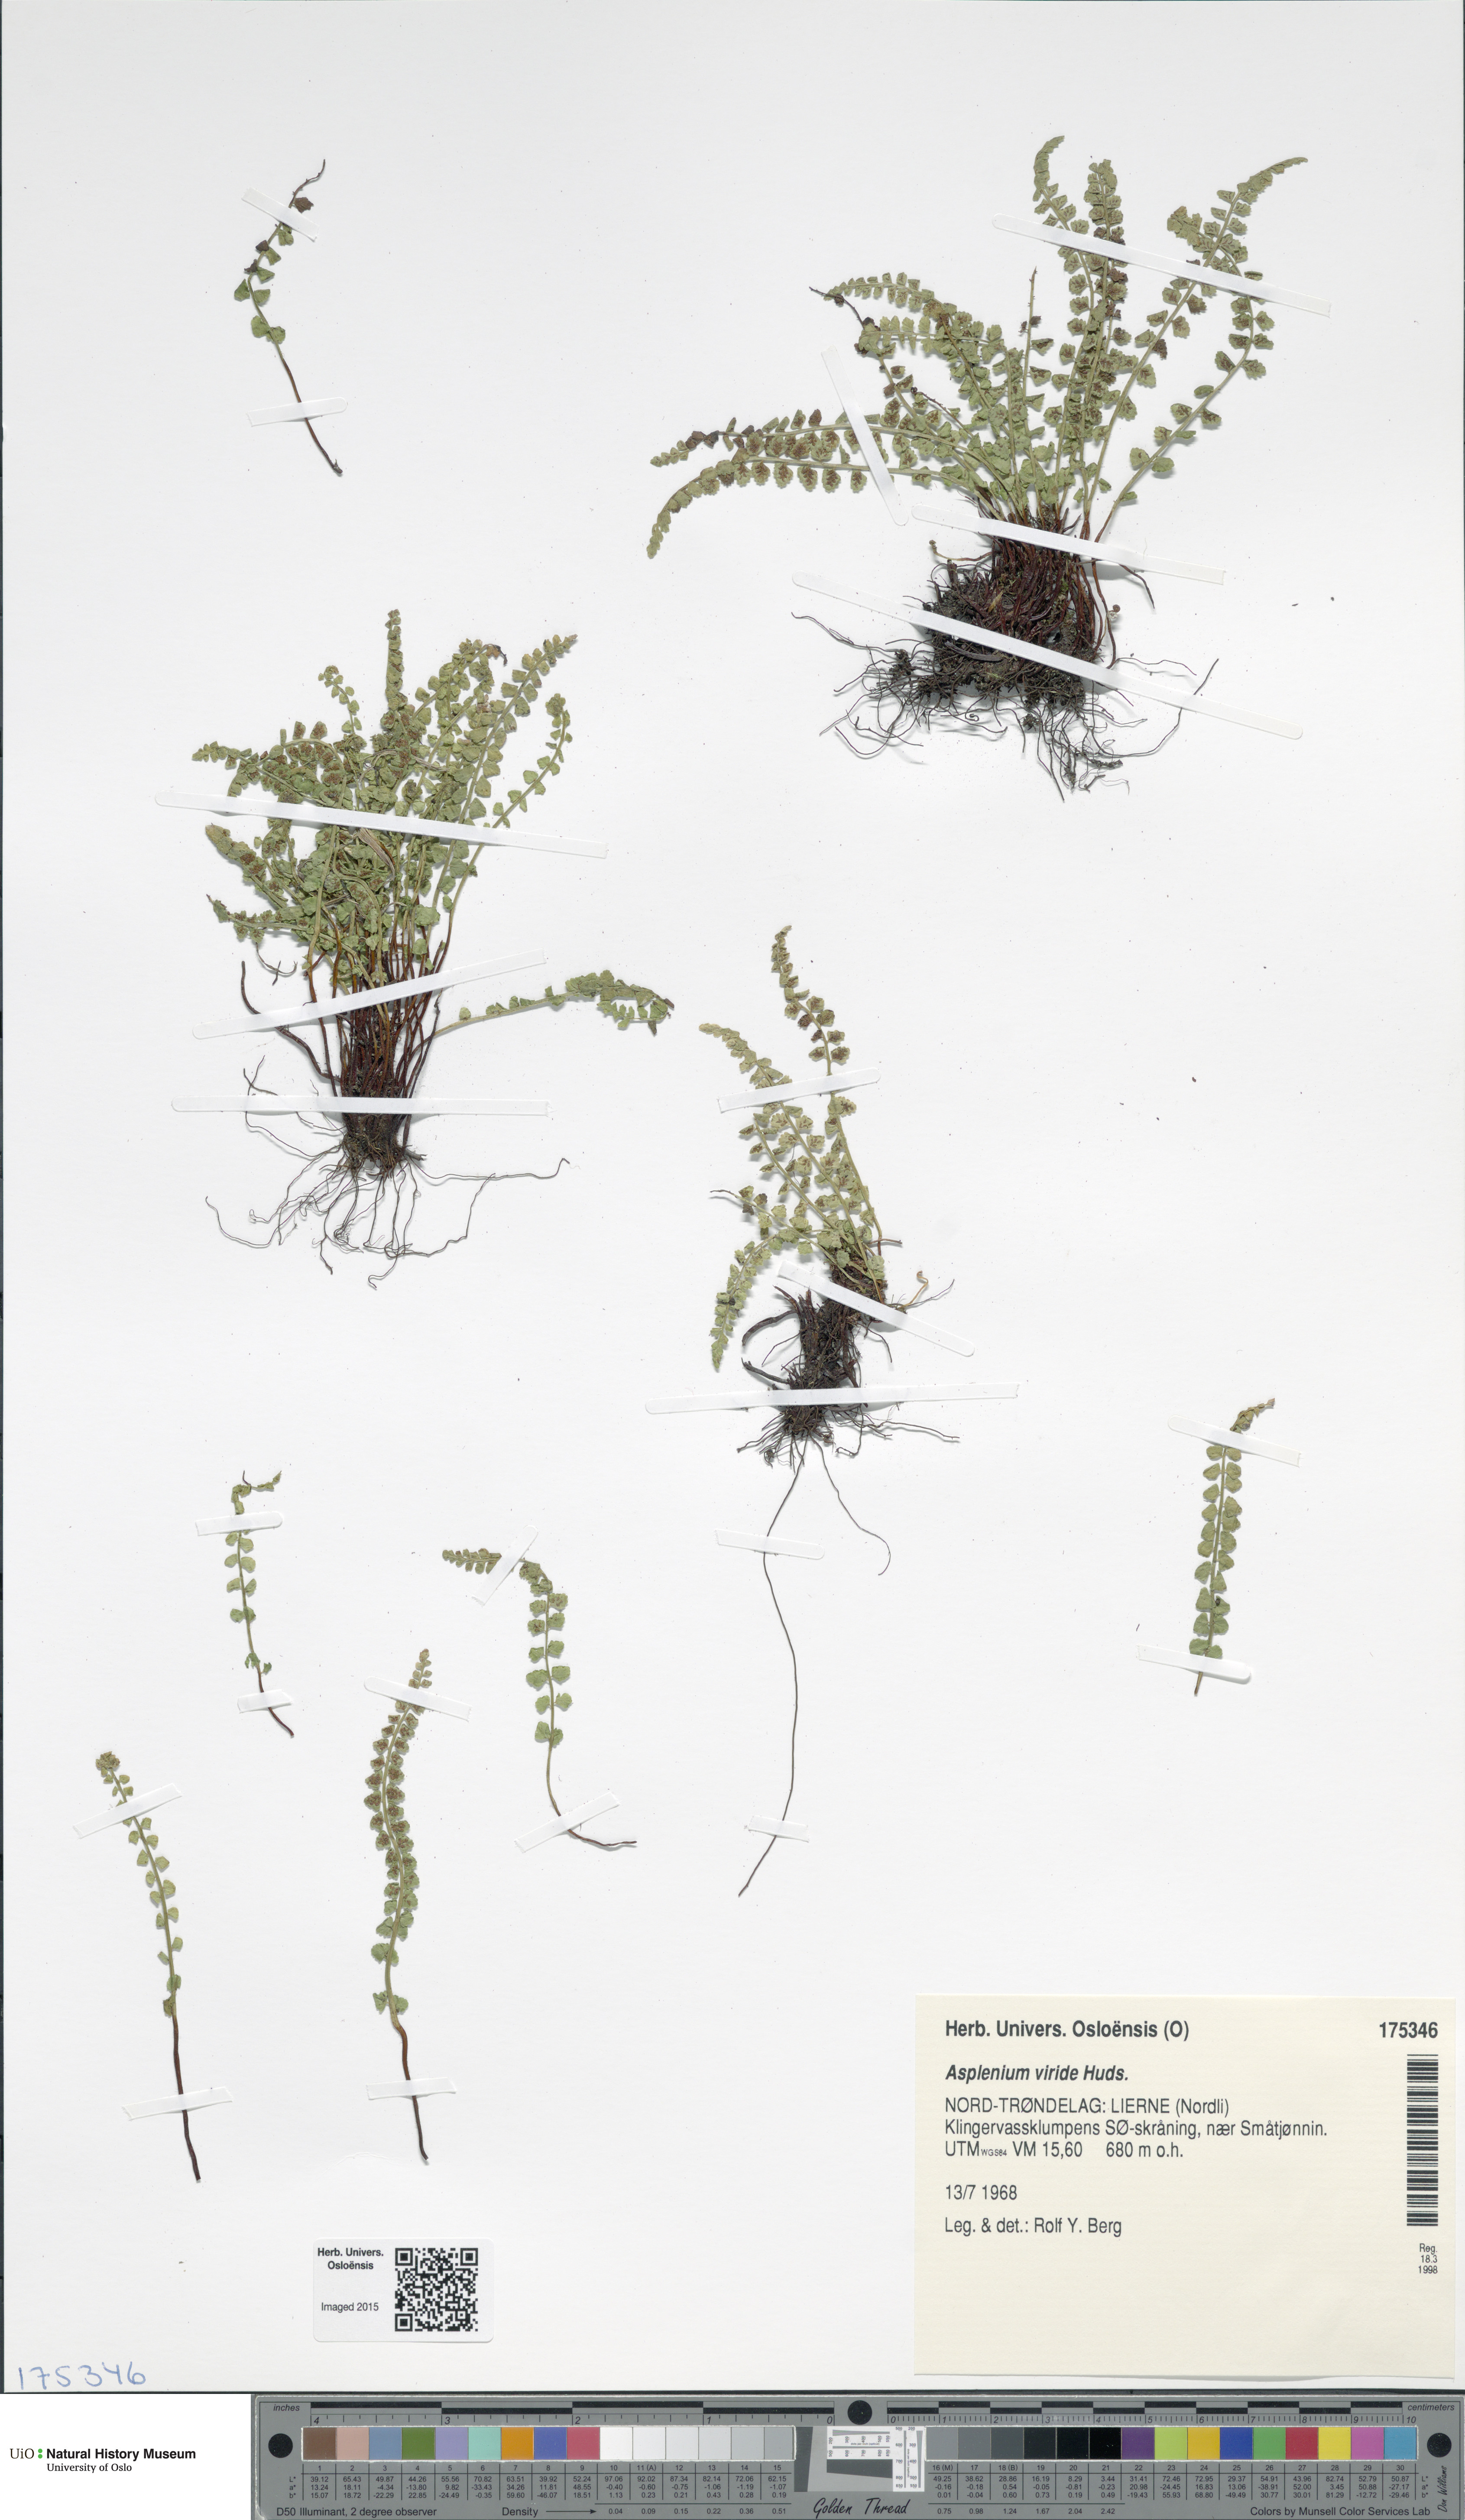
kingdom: Plantae
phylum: Tracheophyta
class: Polypodiopsida
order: Polypodiales
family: Aspleniaceae
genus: Asplenium
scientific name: Asplenium viride
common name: Green spleenwort
